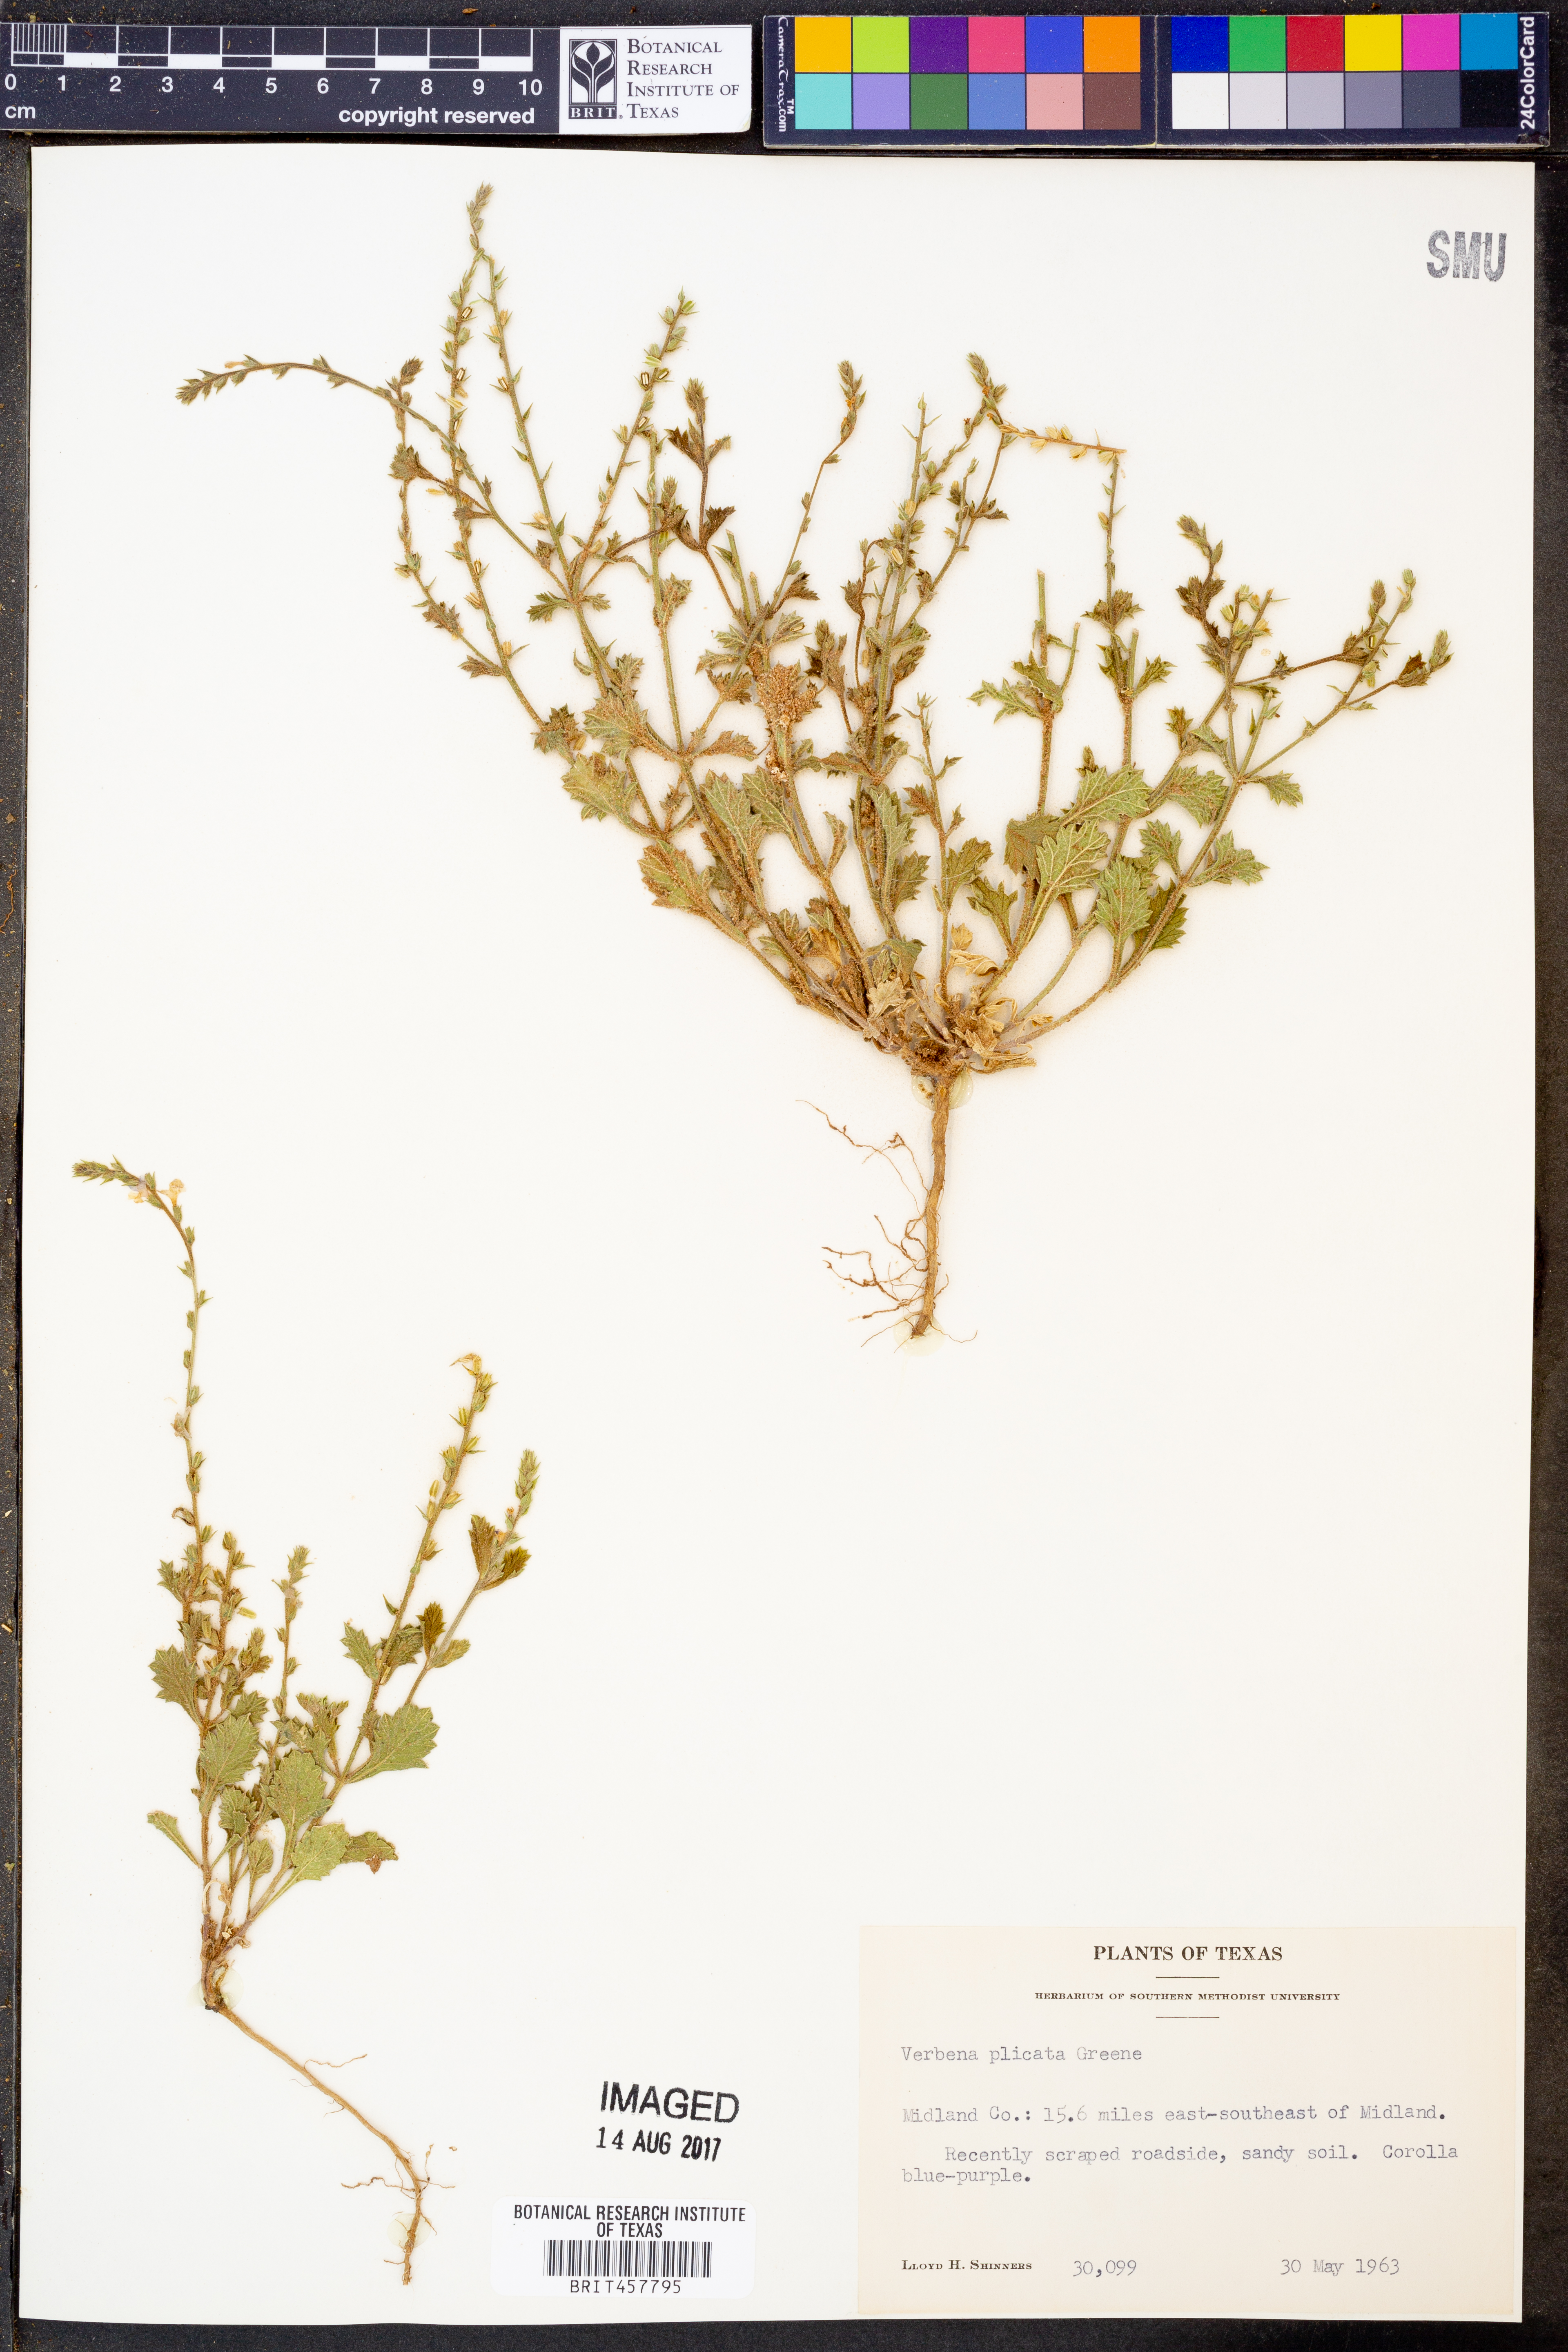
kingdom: Plantae
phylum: Tracheophyta
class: Magnoliopsida
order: Lamiales
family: Verbenaceae
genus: Verbena
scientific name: Verbena plicata
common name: Fan-leaf vervain
